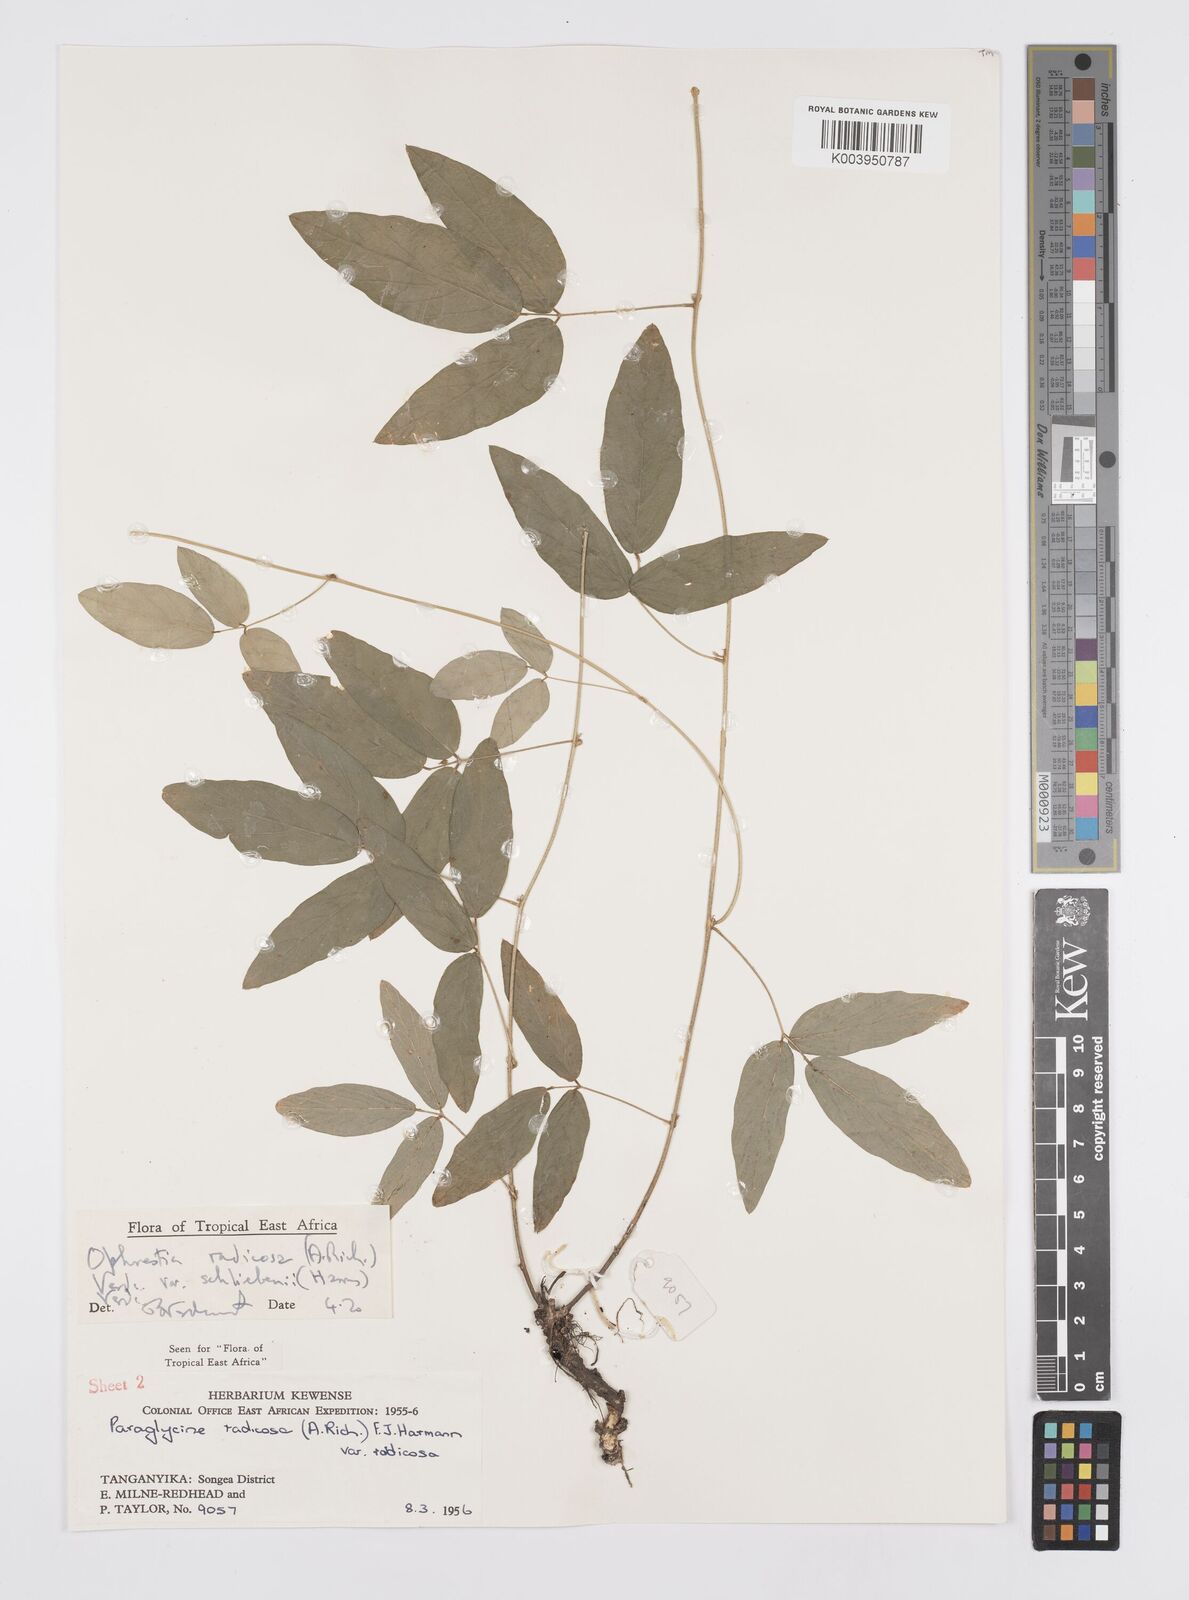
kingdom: Plantae
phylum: Tracheophyta
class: Magnoliopsida
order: Fabales
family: Fabaceae
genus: Ophrestia
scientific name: Ophrestia radicosa
